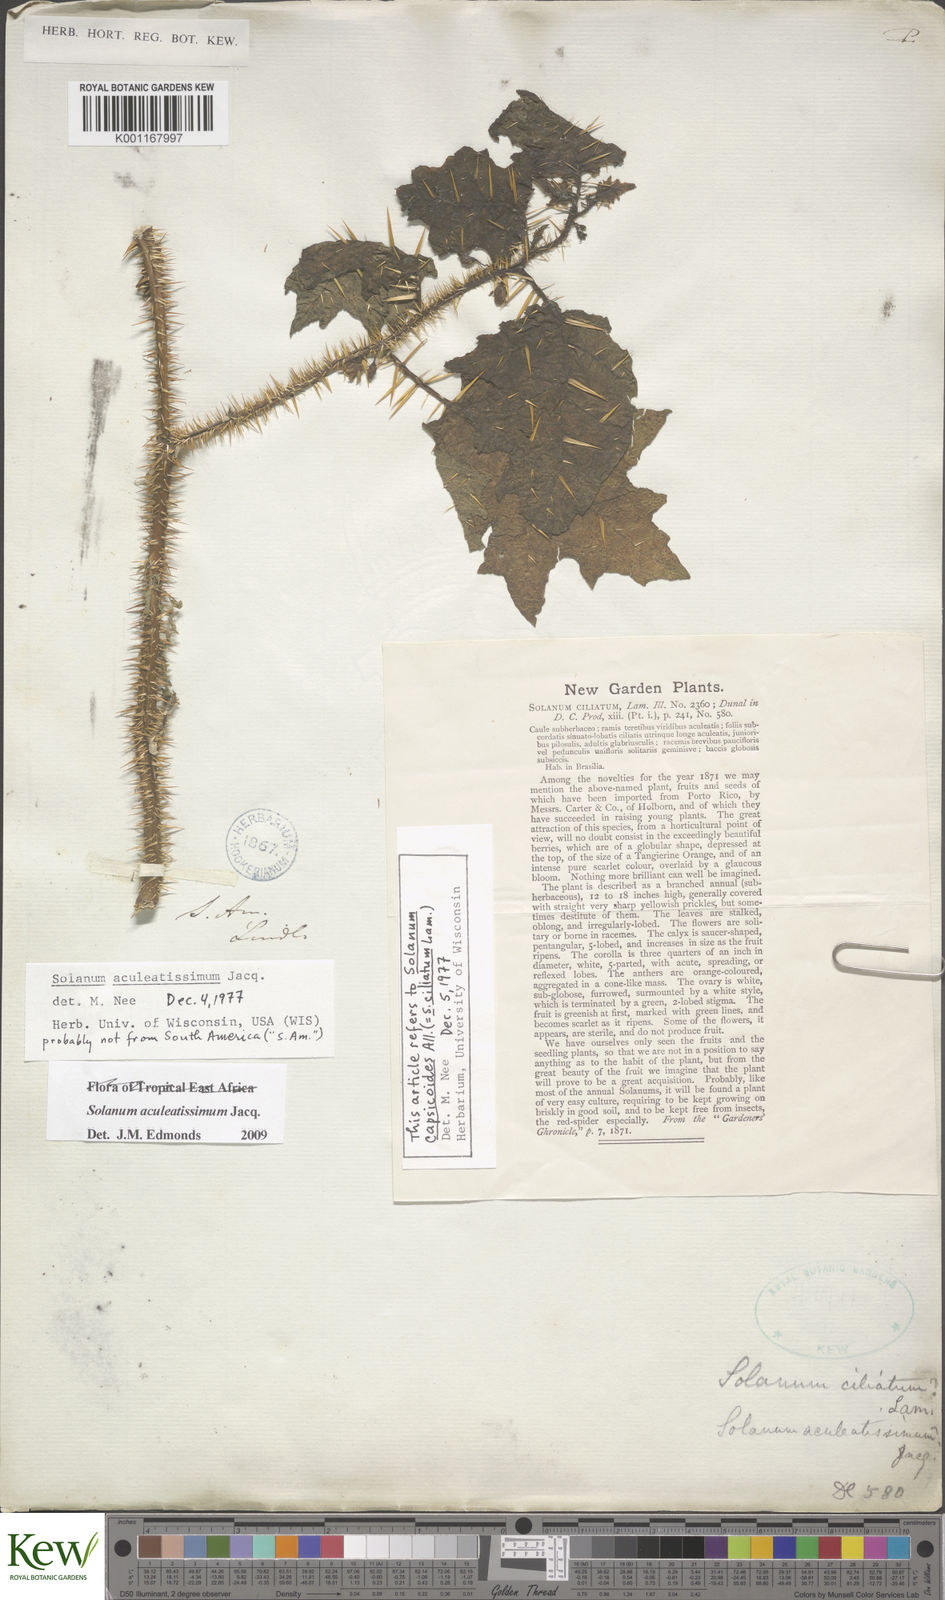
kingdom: Plantae
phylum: Tracheophyta
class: Magnoliopsida
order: Solanales
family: Solanaceae
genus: Solanum
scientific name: Solanum aculeatissimum
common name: Dutch eggplant
